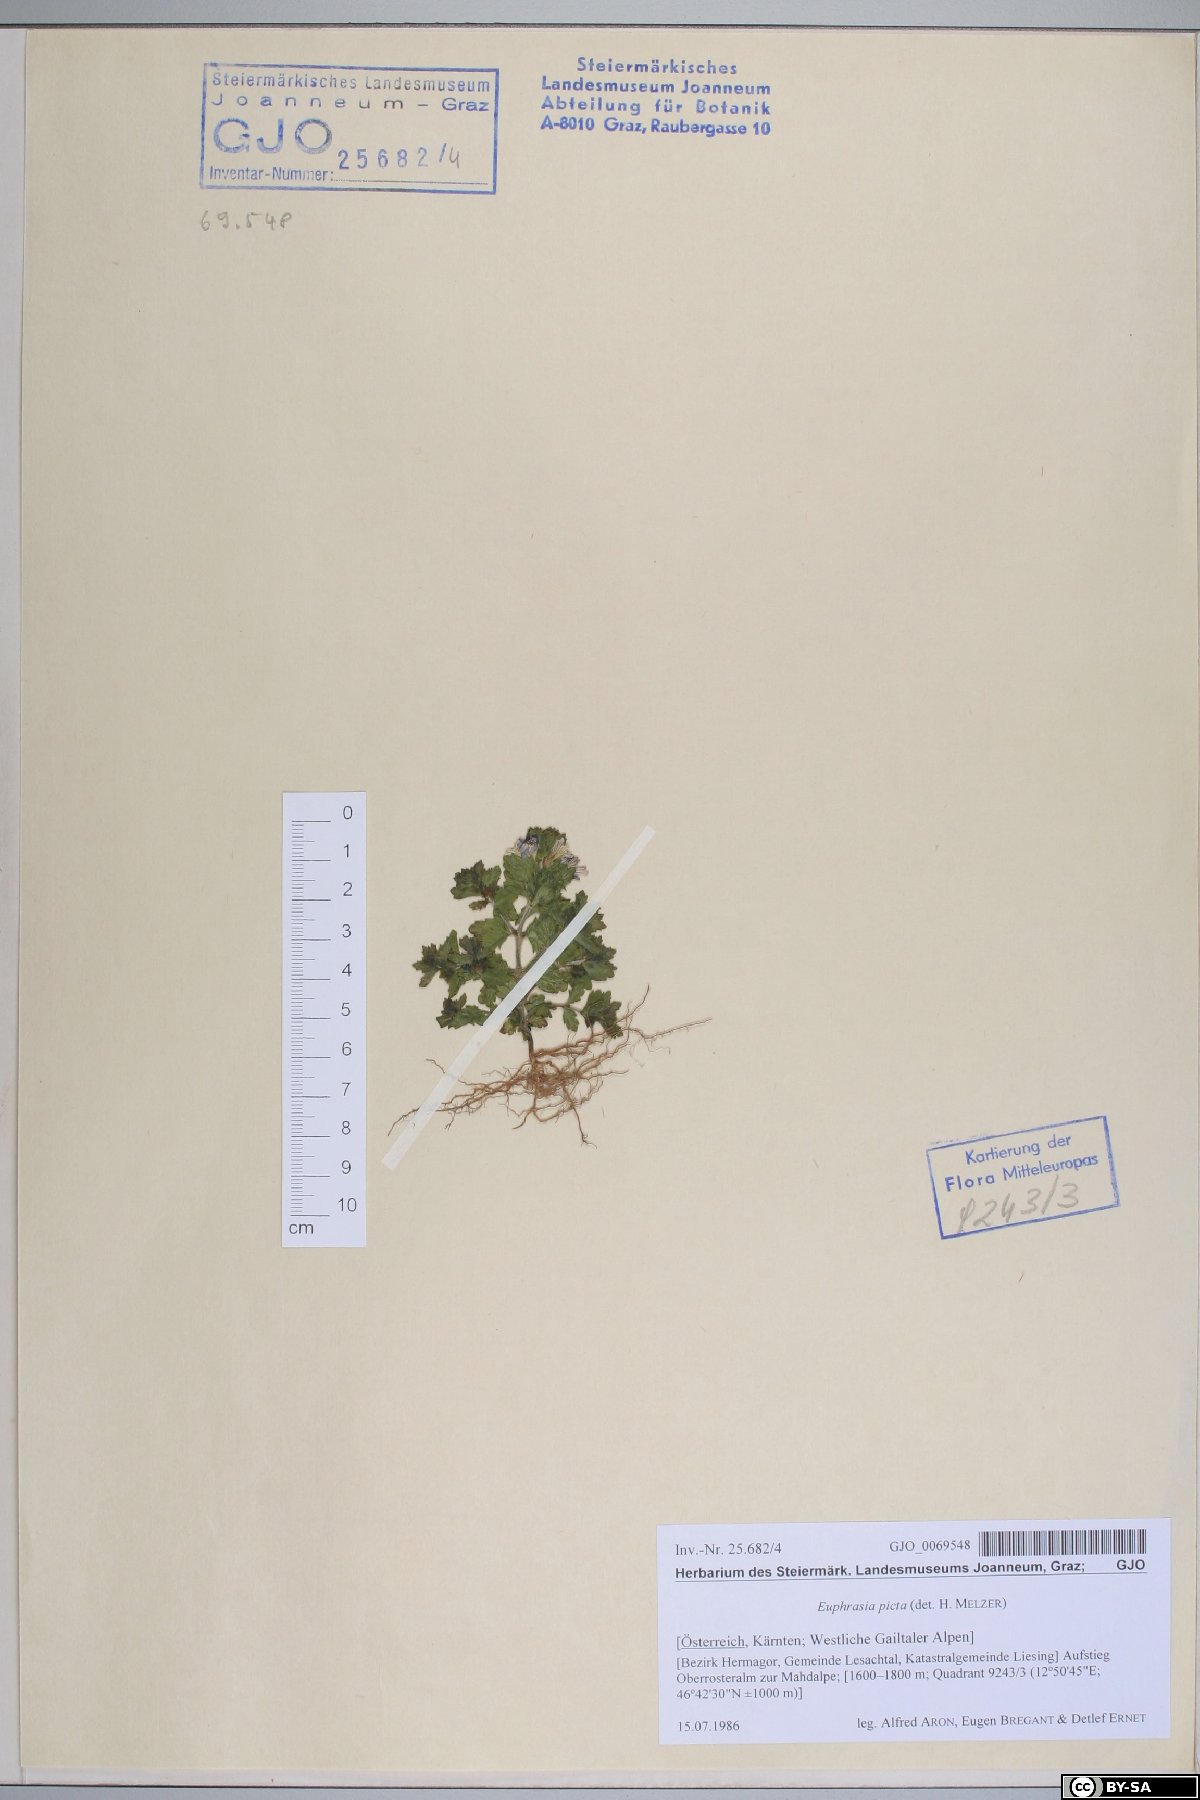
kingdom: Plantae
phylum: Tracheophyta
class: Magnoliopsida
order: Lamiales
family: Orobanchaceae
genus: Euphrasia
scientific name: Euphrasia picta
